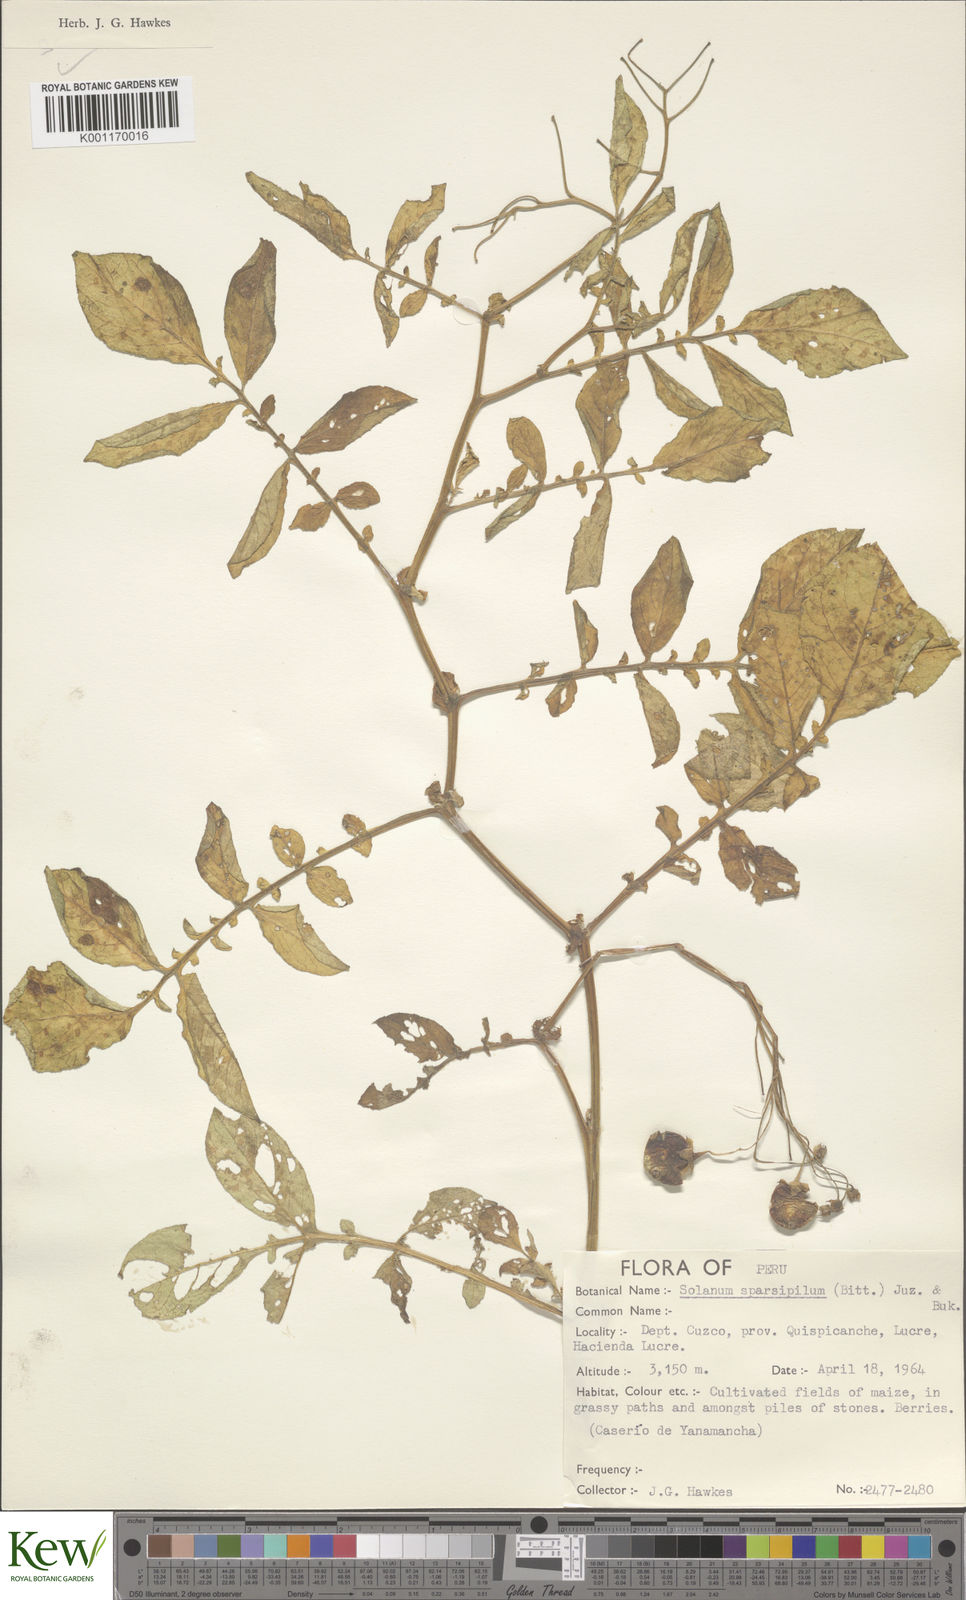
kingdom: Plantae
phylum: Tracheophyta
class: Magnoliopsida
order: Solanales
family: Solanaceae
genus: Solanum
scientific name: Solanum brevicaule
